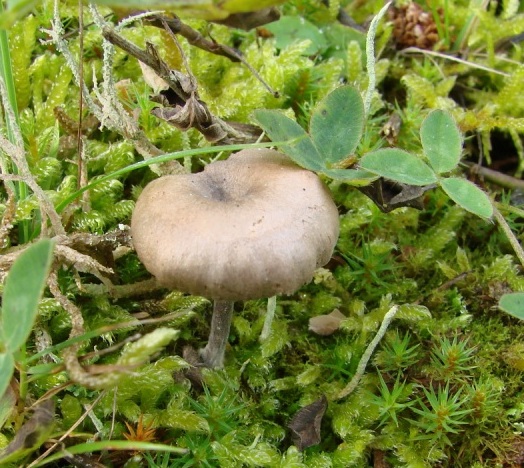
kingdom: Fungi
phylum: Basidiomycota
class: Agaricomycetes
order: Agaricales
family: Entolomataceae
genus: Clitopilus
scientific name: Clitopilus caelatus
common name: gråbrun troldhat
